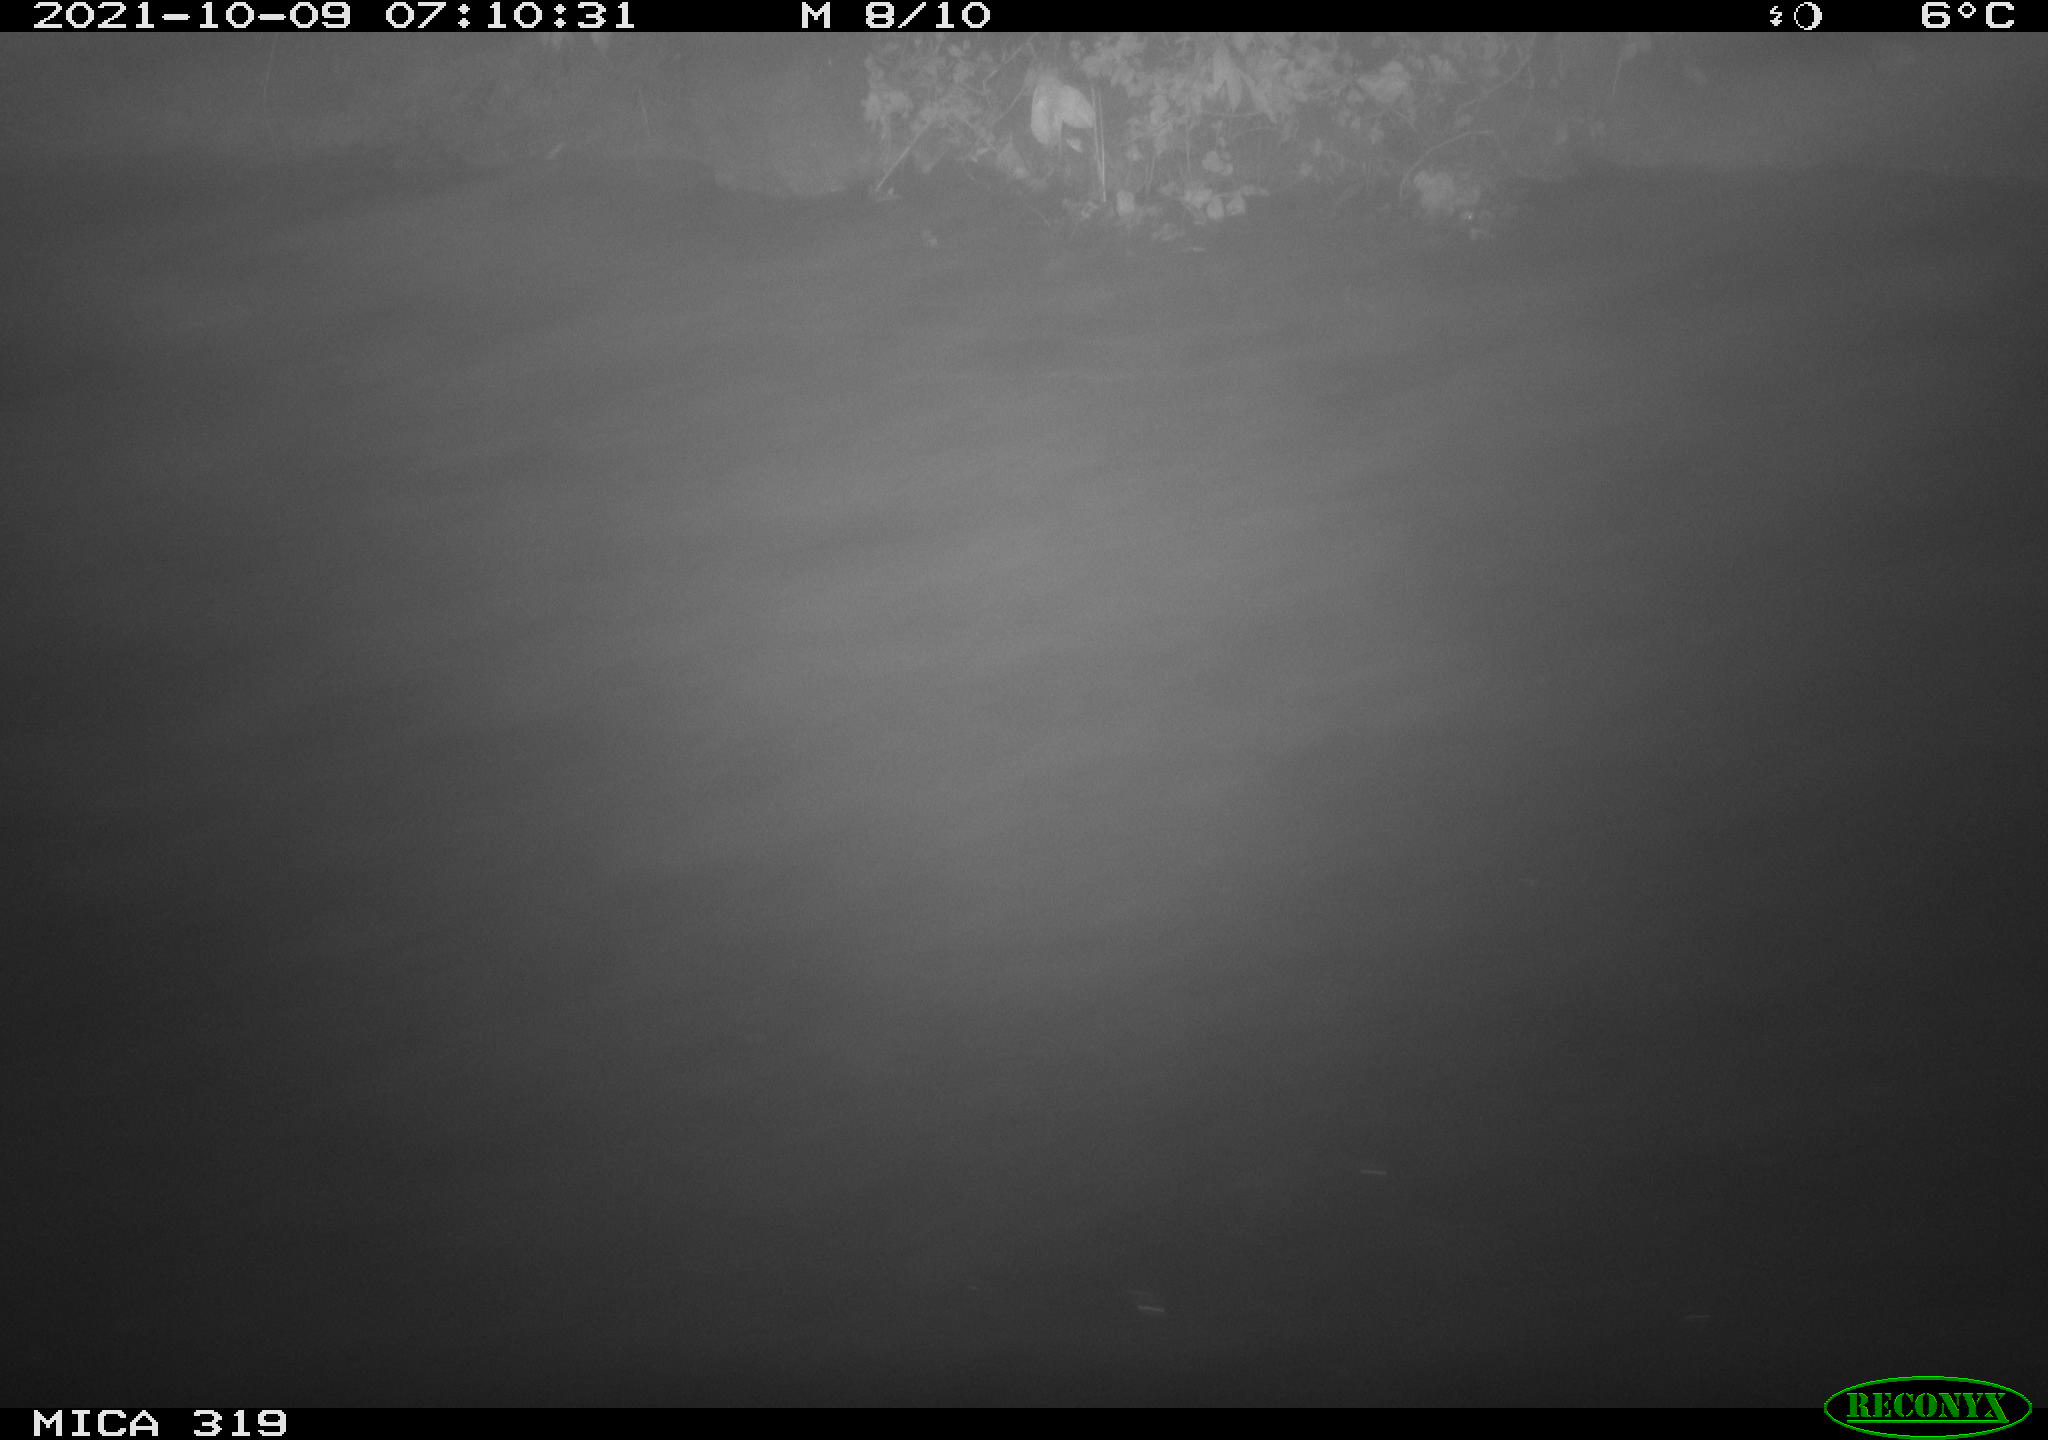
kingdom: Animalia
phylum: Chordata
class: Aves
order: Anseriformes
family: Anatidae
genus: Anas
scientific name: Anas platyrhynchos
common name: Mallard
